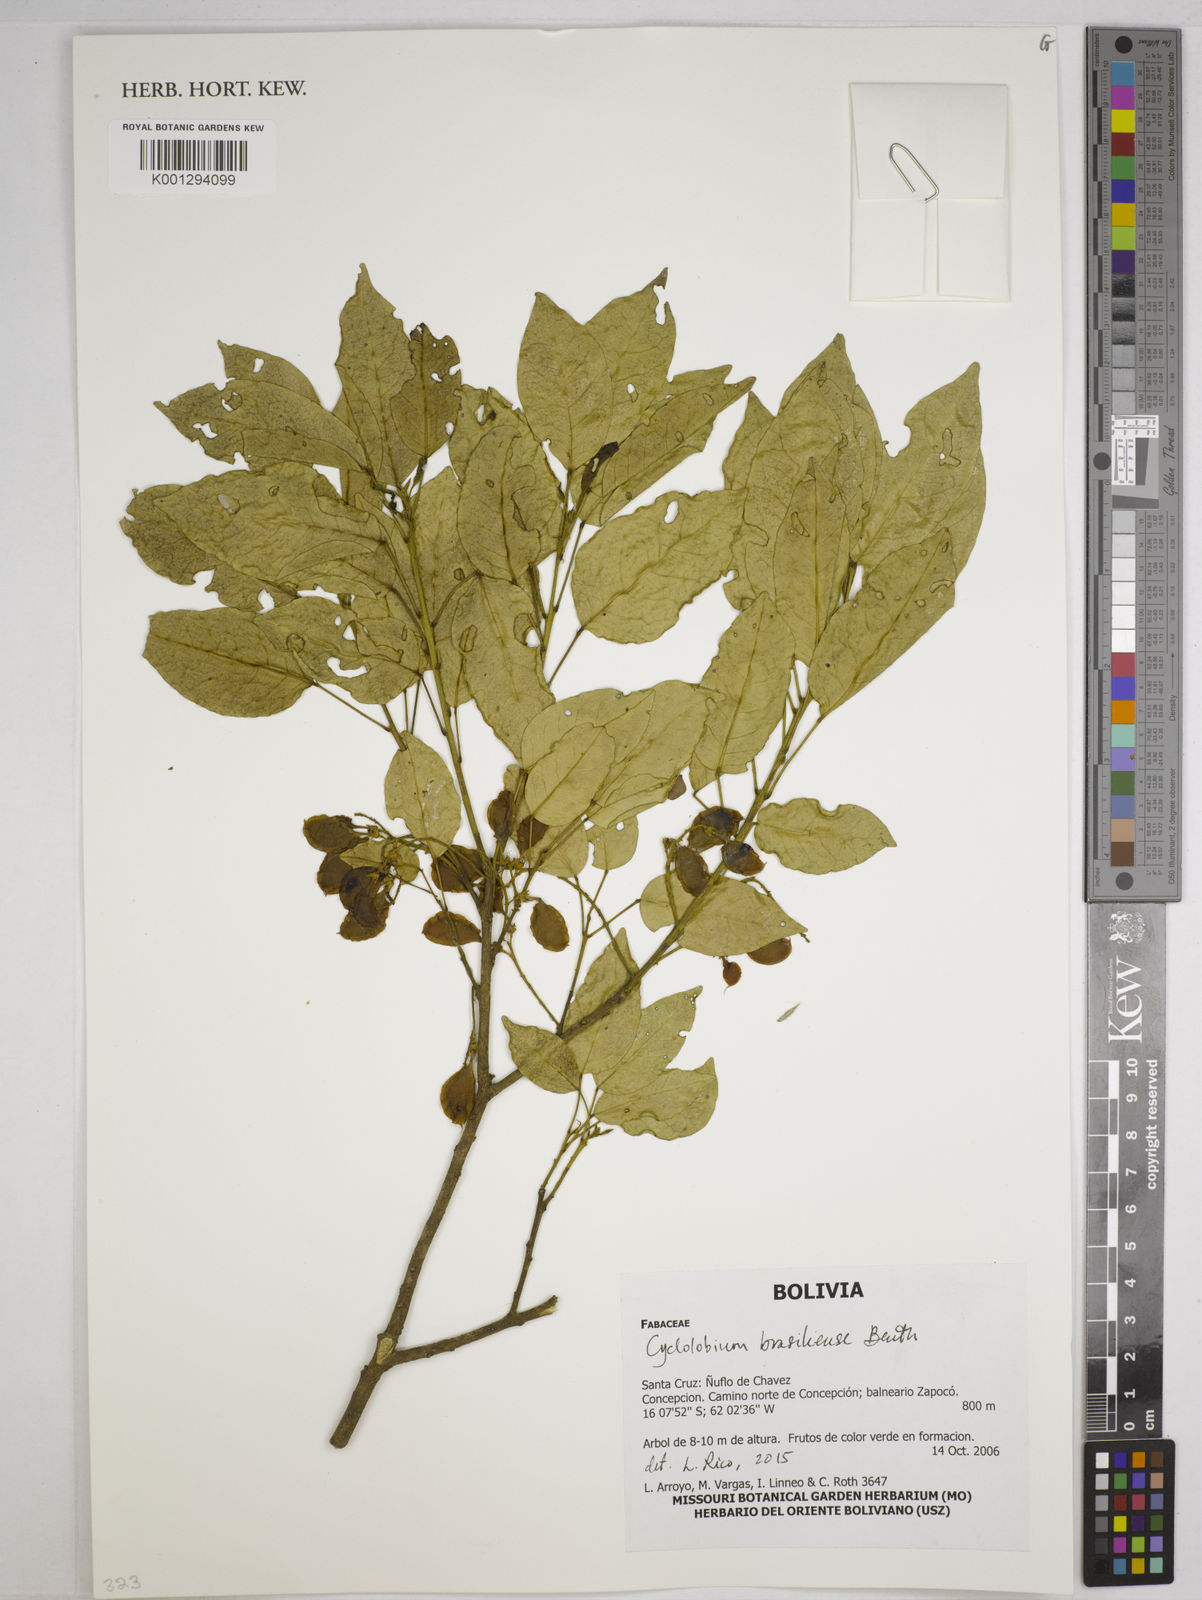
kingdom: Plantae
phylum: Tracheophyta
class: Magnoliopsida
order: Fabales
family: Fabaceae
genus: Cyclolobium
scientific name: Cyclolobium brasiliense
